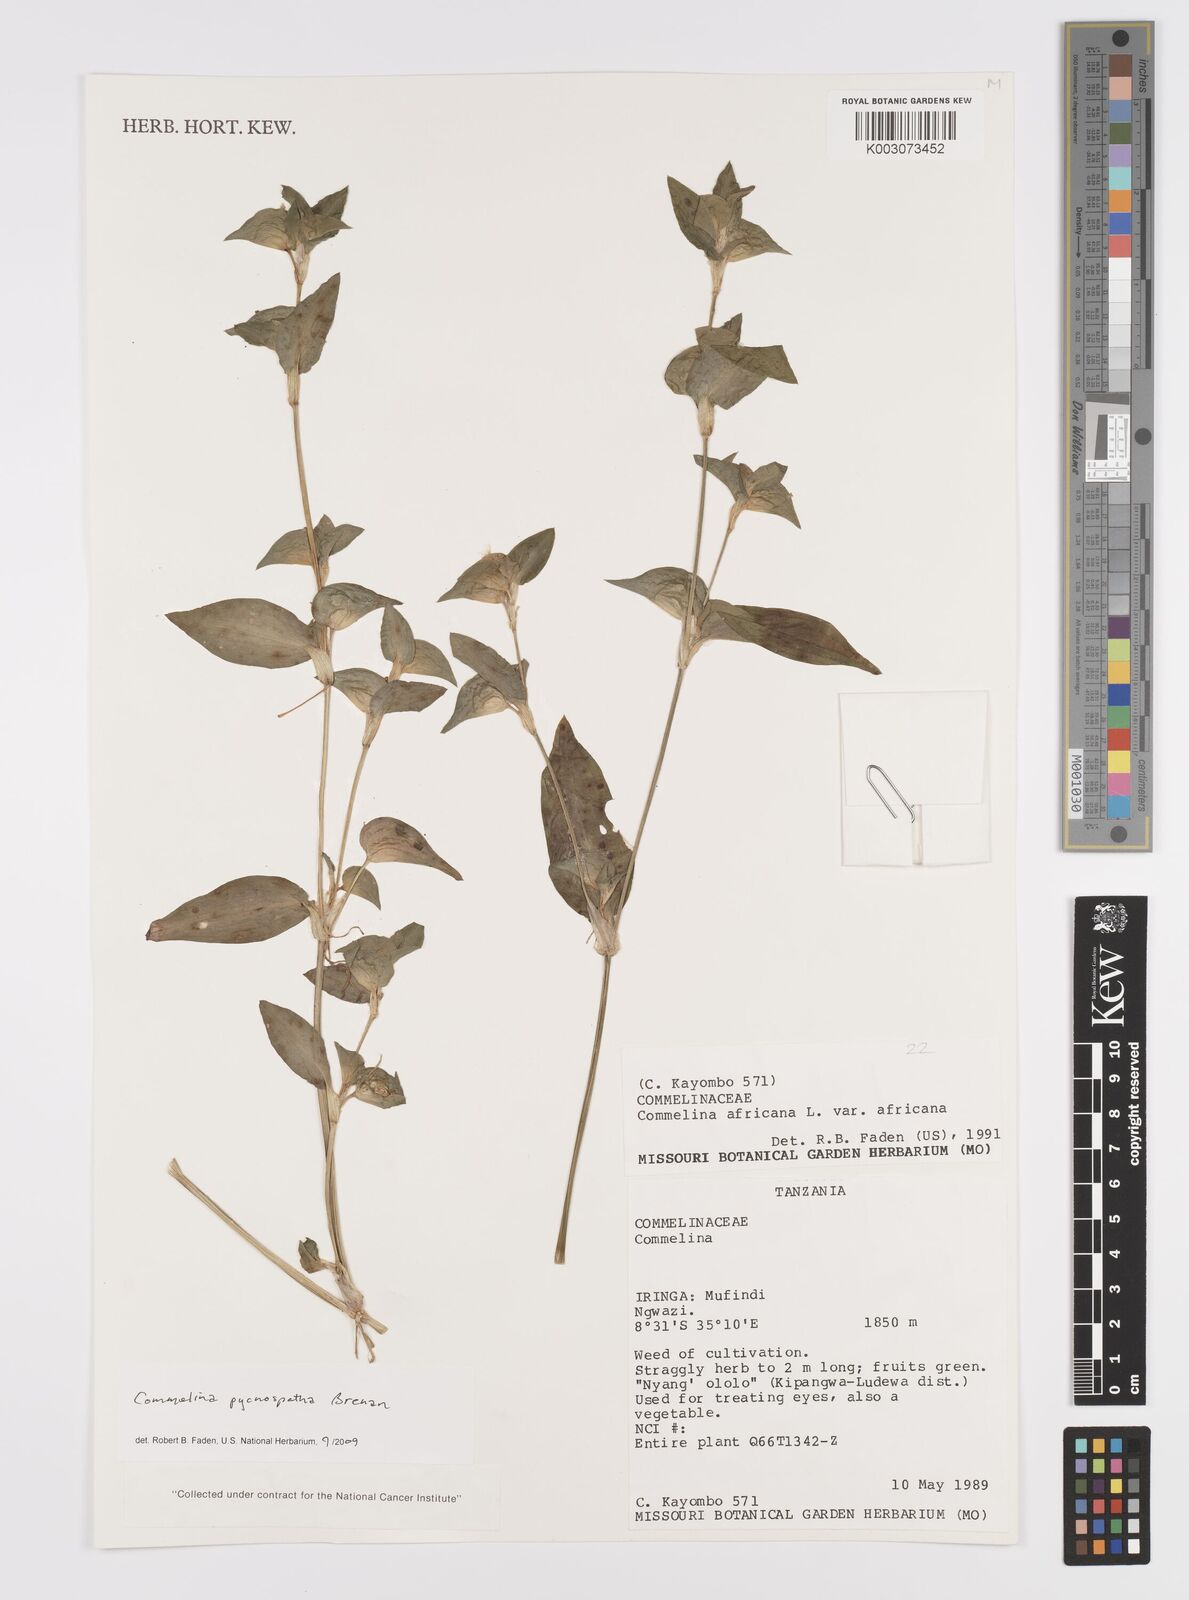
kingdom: Plantae
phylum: Tracheophyta
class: Liliopsida
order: Commelinales
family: Commelinaceae
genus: Commelina
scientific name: Commelina pycnospatha
